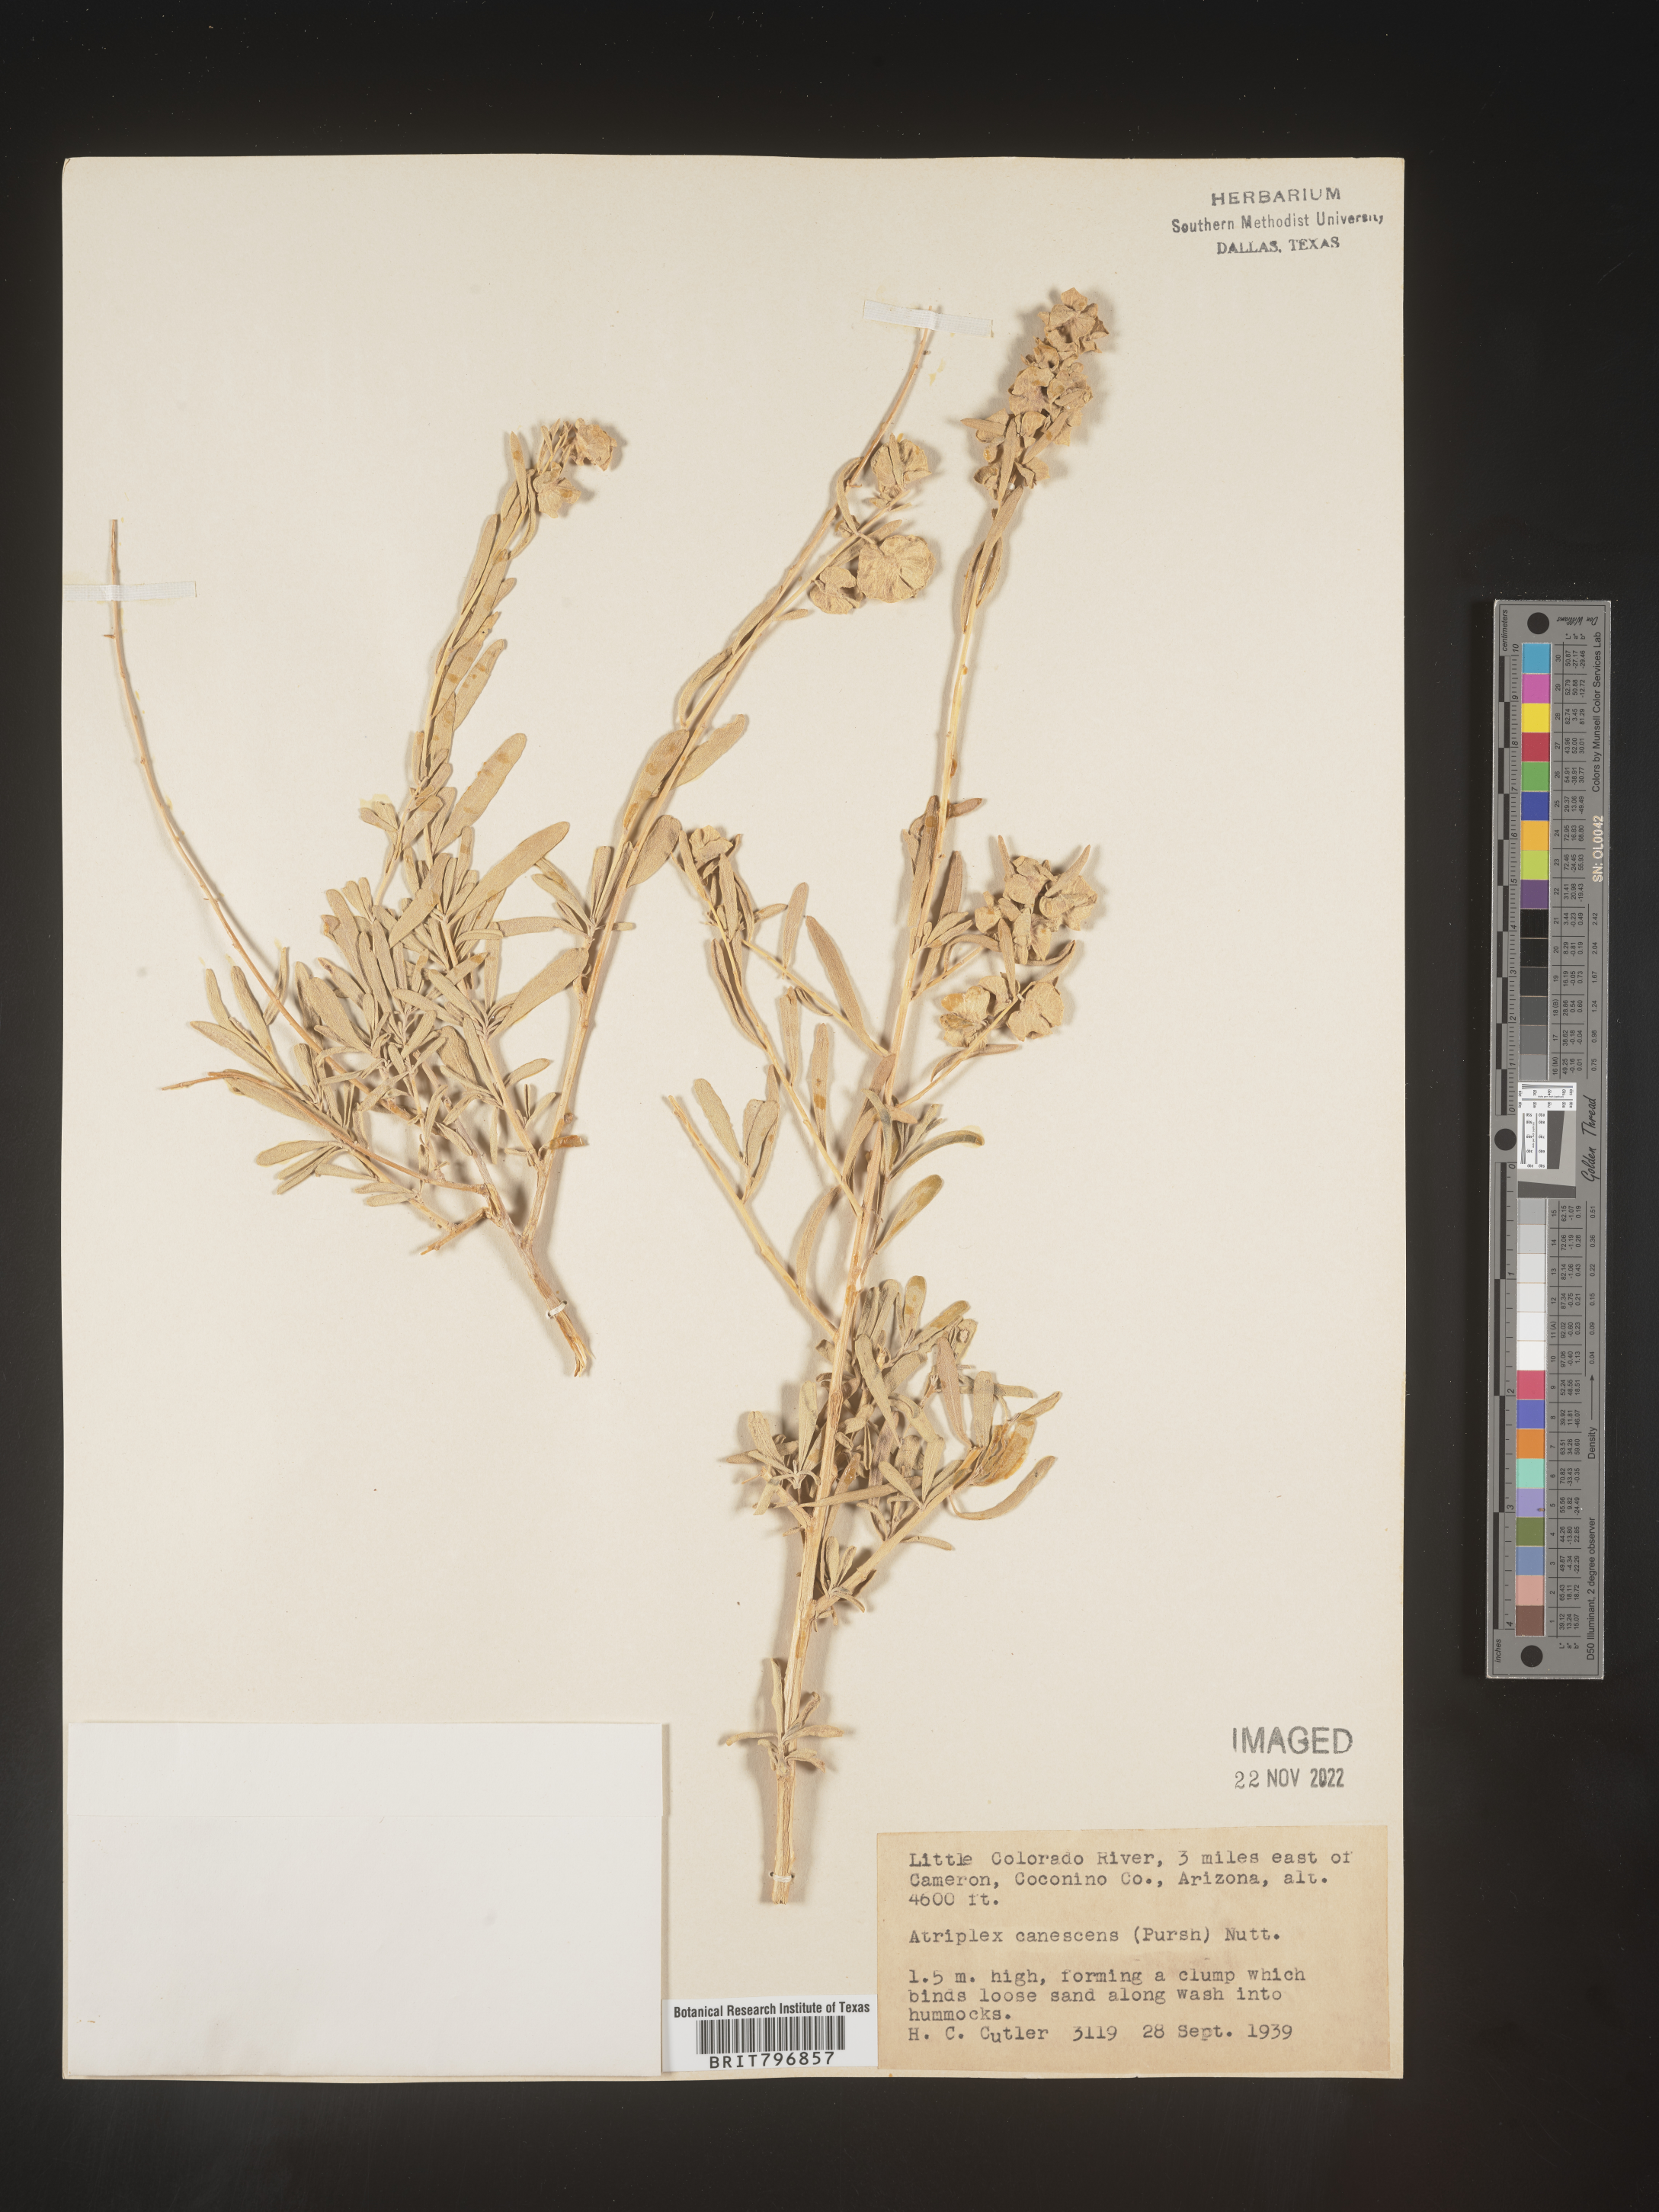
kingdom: Plantae
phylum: Tracheophyta
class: Magnoliopsida
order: Caryophyllales
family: Amaranthaceae
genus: Atriplex
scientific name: Atriplex canescens
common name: Four-wing saltbush
